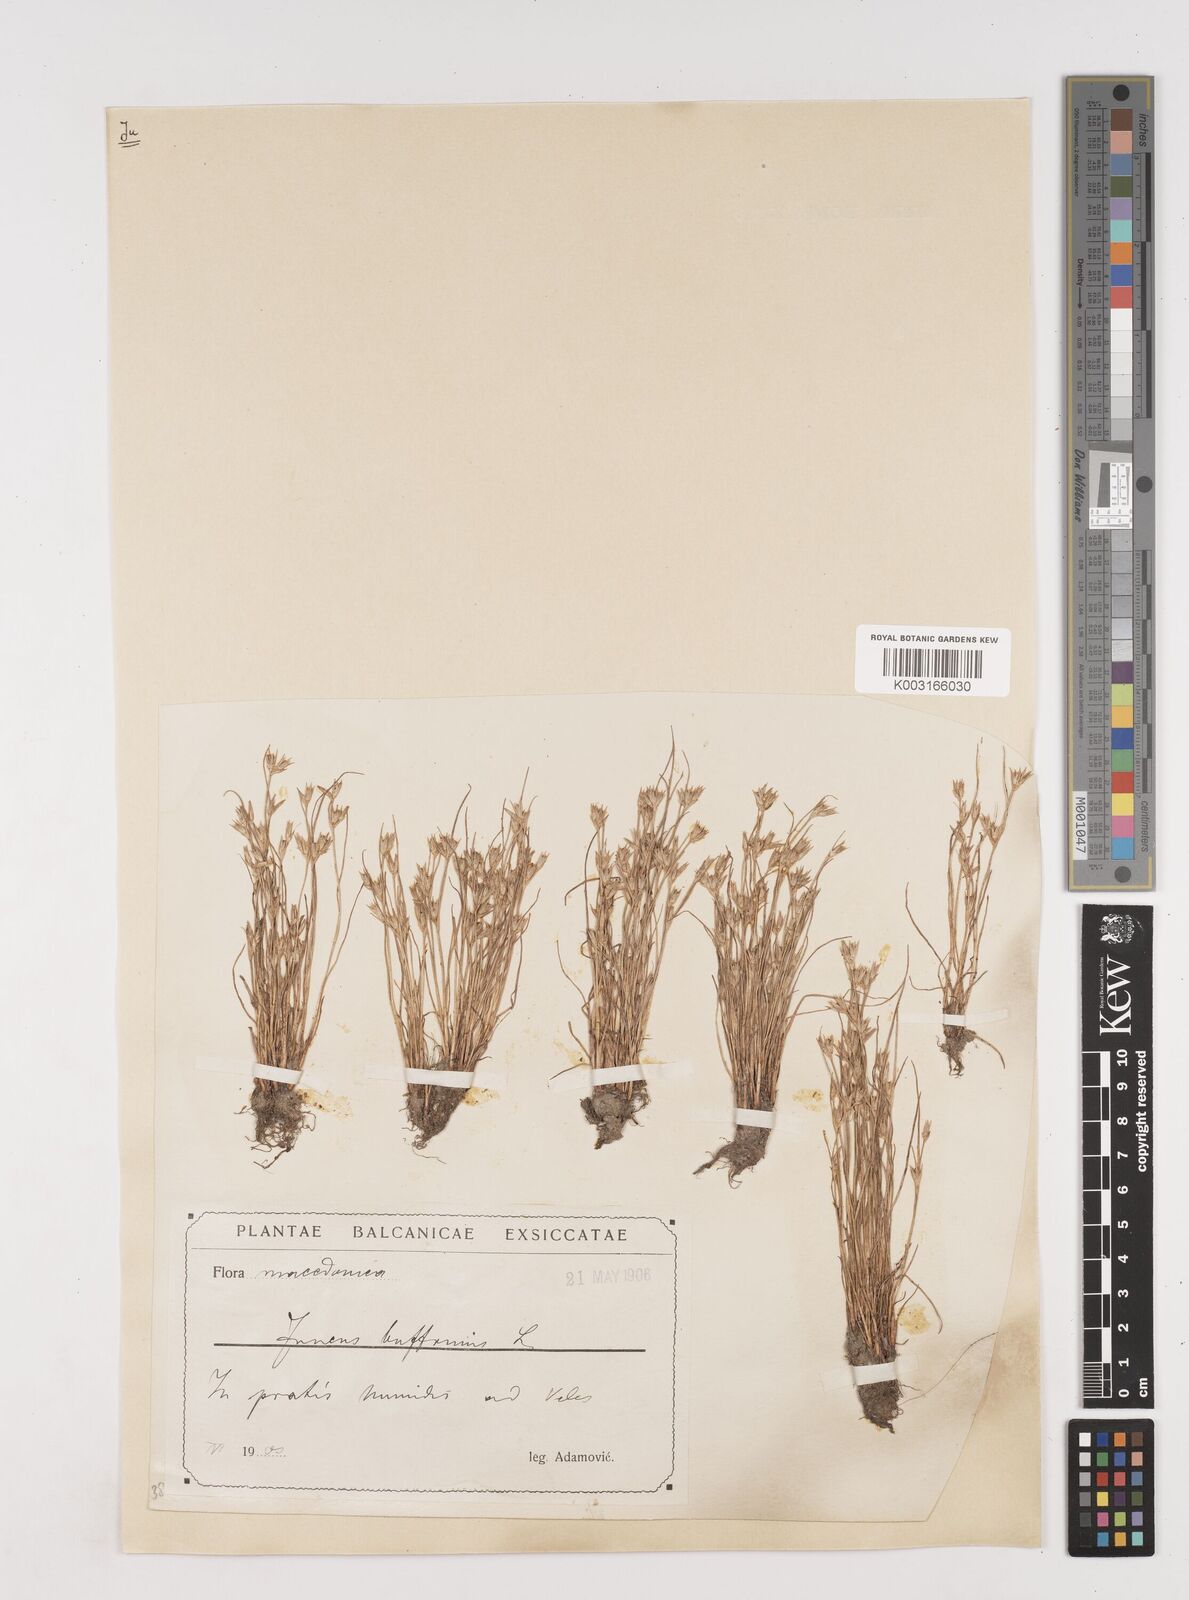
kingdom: Plantae
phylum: Tracheophyta
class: Liliopsida
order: Poales
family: Juncaceae
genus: Juncus
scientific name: Juncus bufonius
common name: Toad rush
